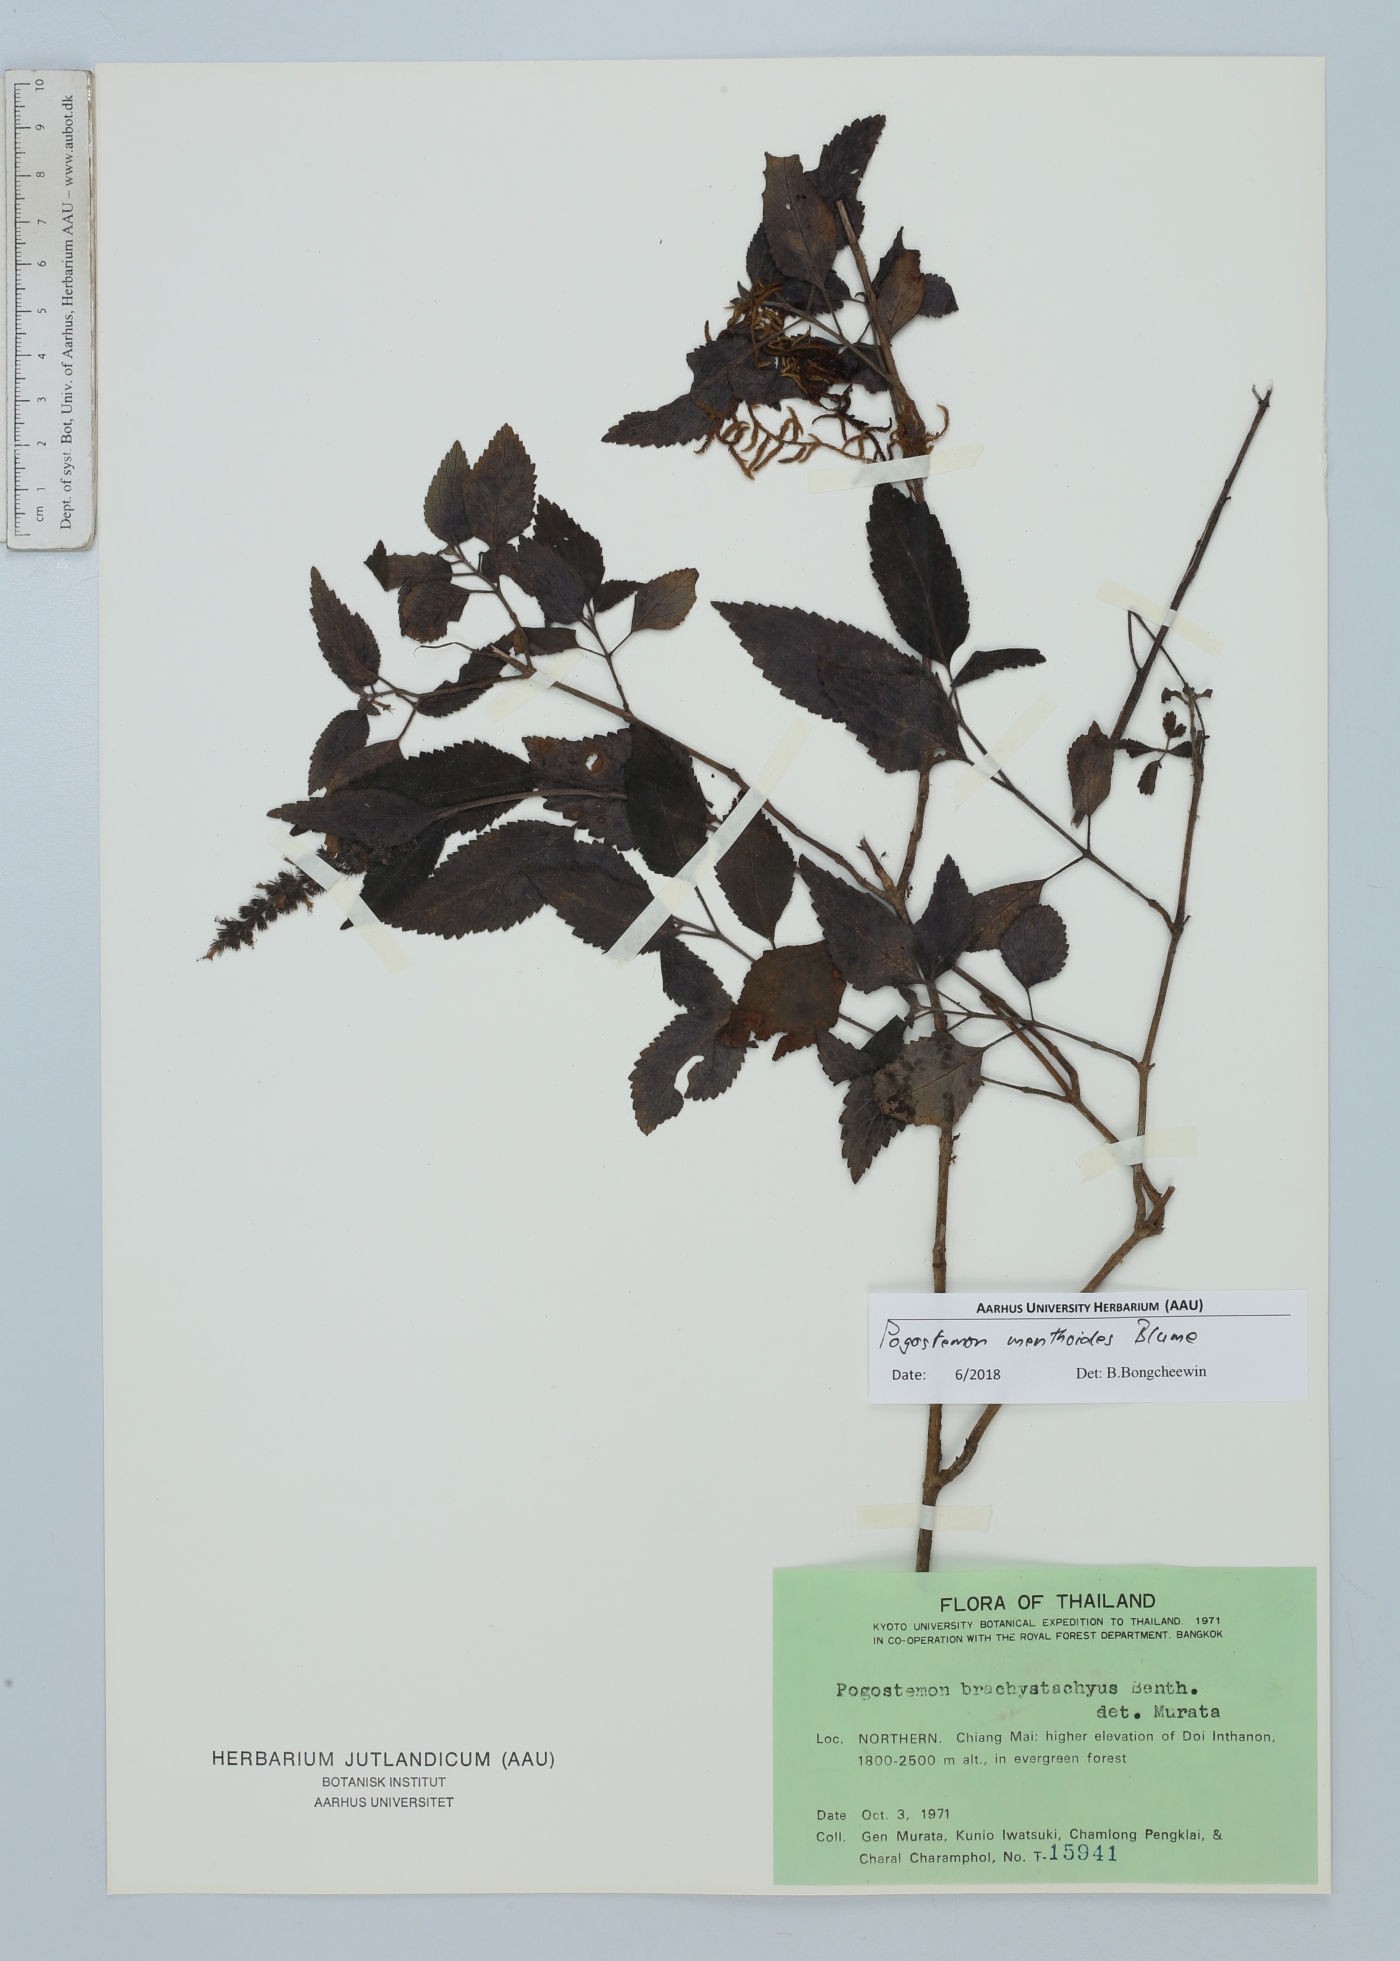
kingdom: Plantae
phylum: Tracheophyta
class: Magnoliopsida
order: Lamiales
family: Lamiaceae
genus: Pogostemon
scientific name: Pogostemon menthoides
